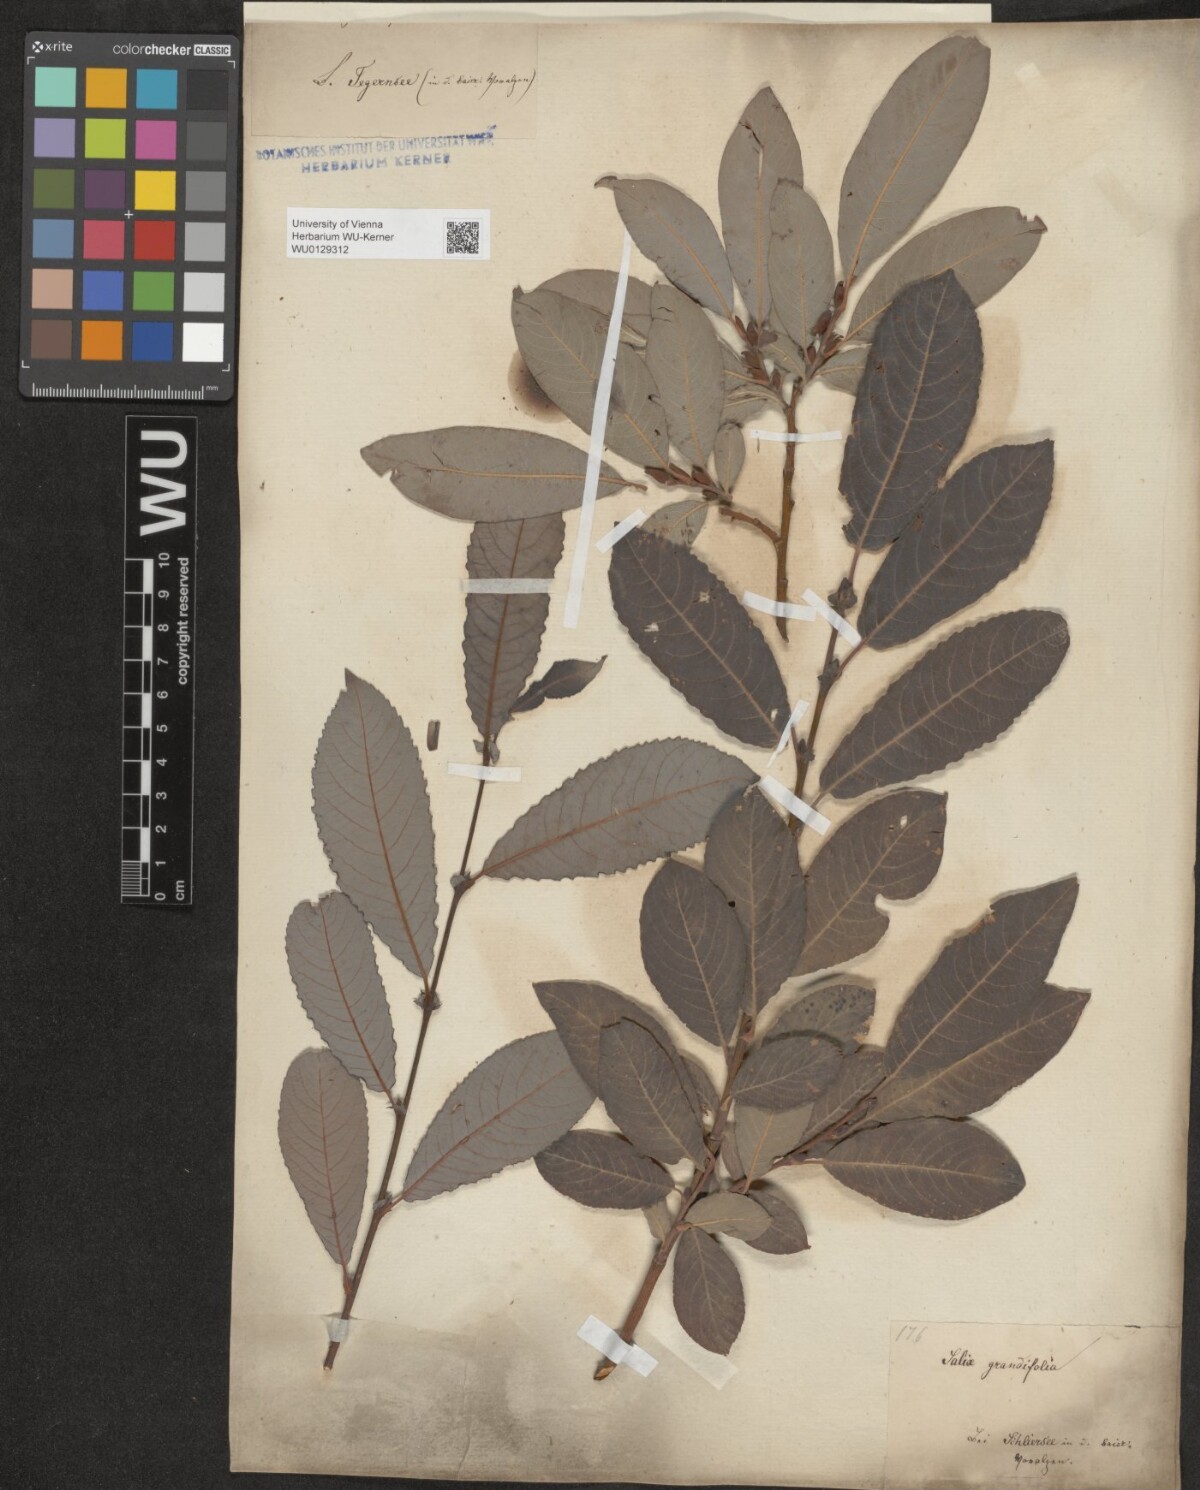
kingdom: Plantae
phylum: Tracheophyta
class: Magnoliopsida
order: Malpighiales
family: Salicaceae
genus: Salix
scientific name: Salix appendiculata
